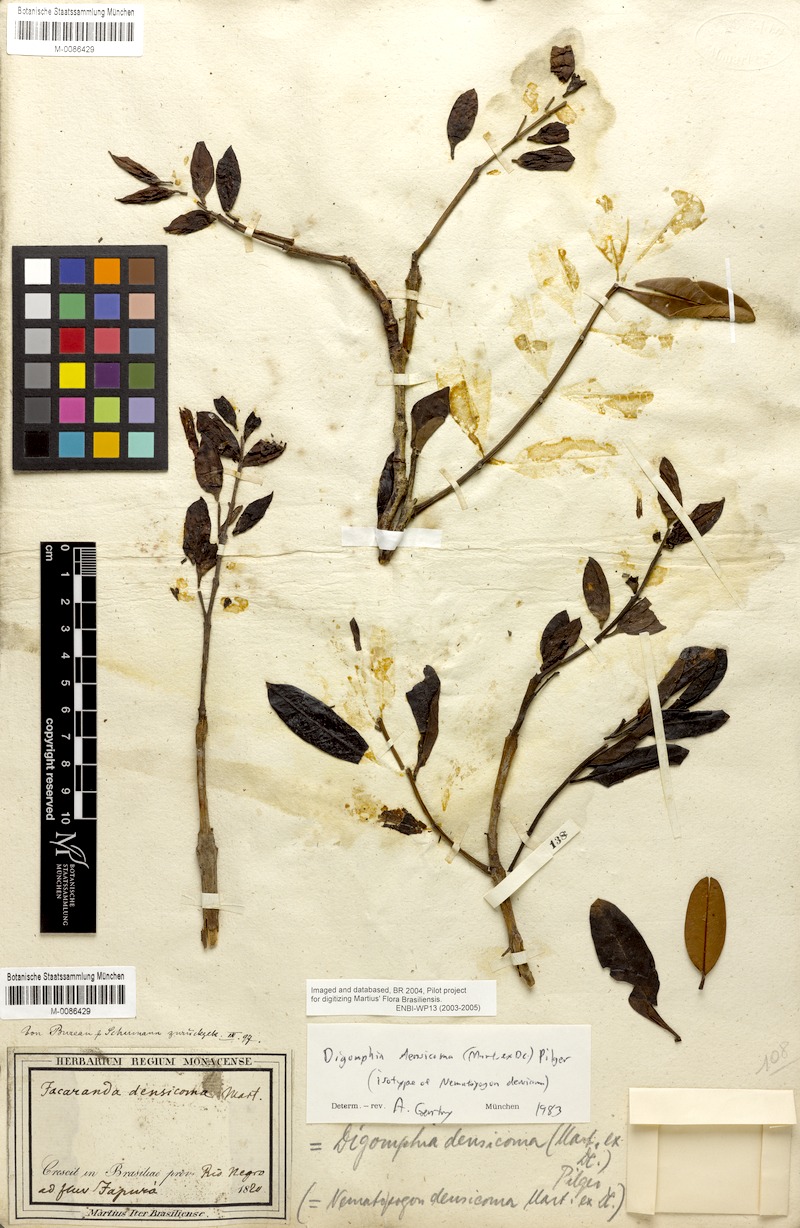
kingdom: Plantae
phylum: Tracheophyta
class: Magnoliopsida
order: Lamiales
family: Bignoniaceae
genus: Digomphia
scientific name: Digomphia densicoma
